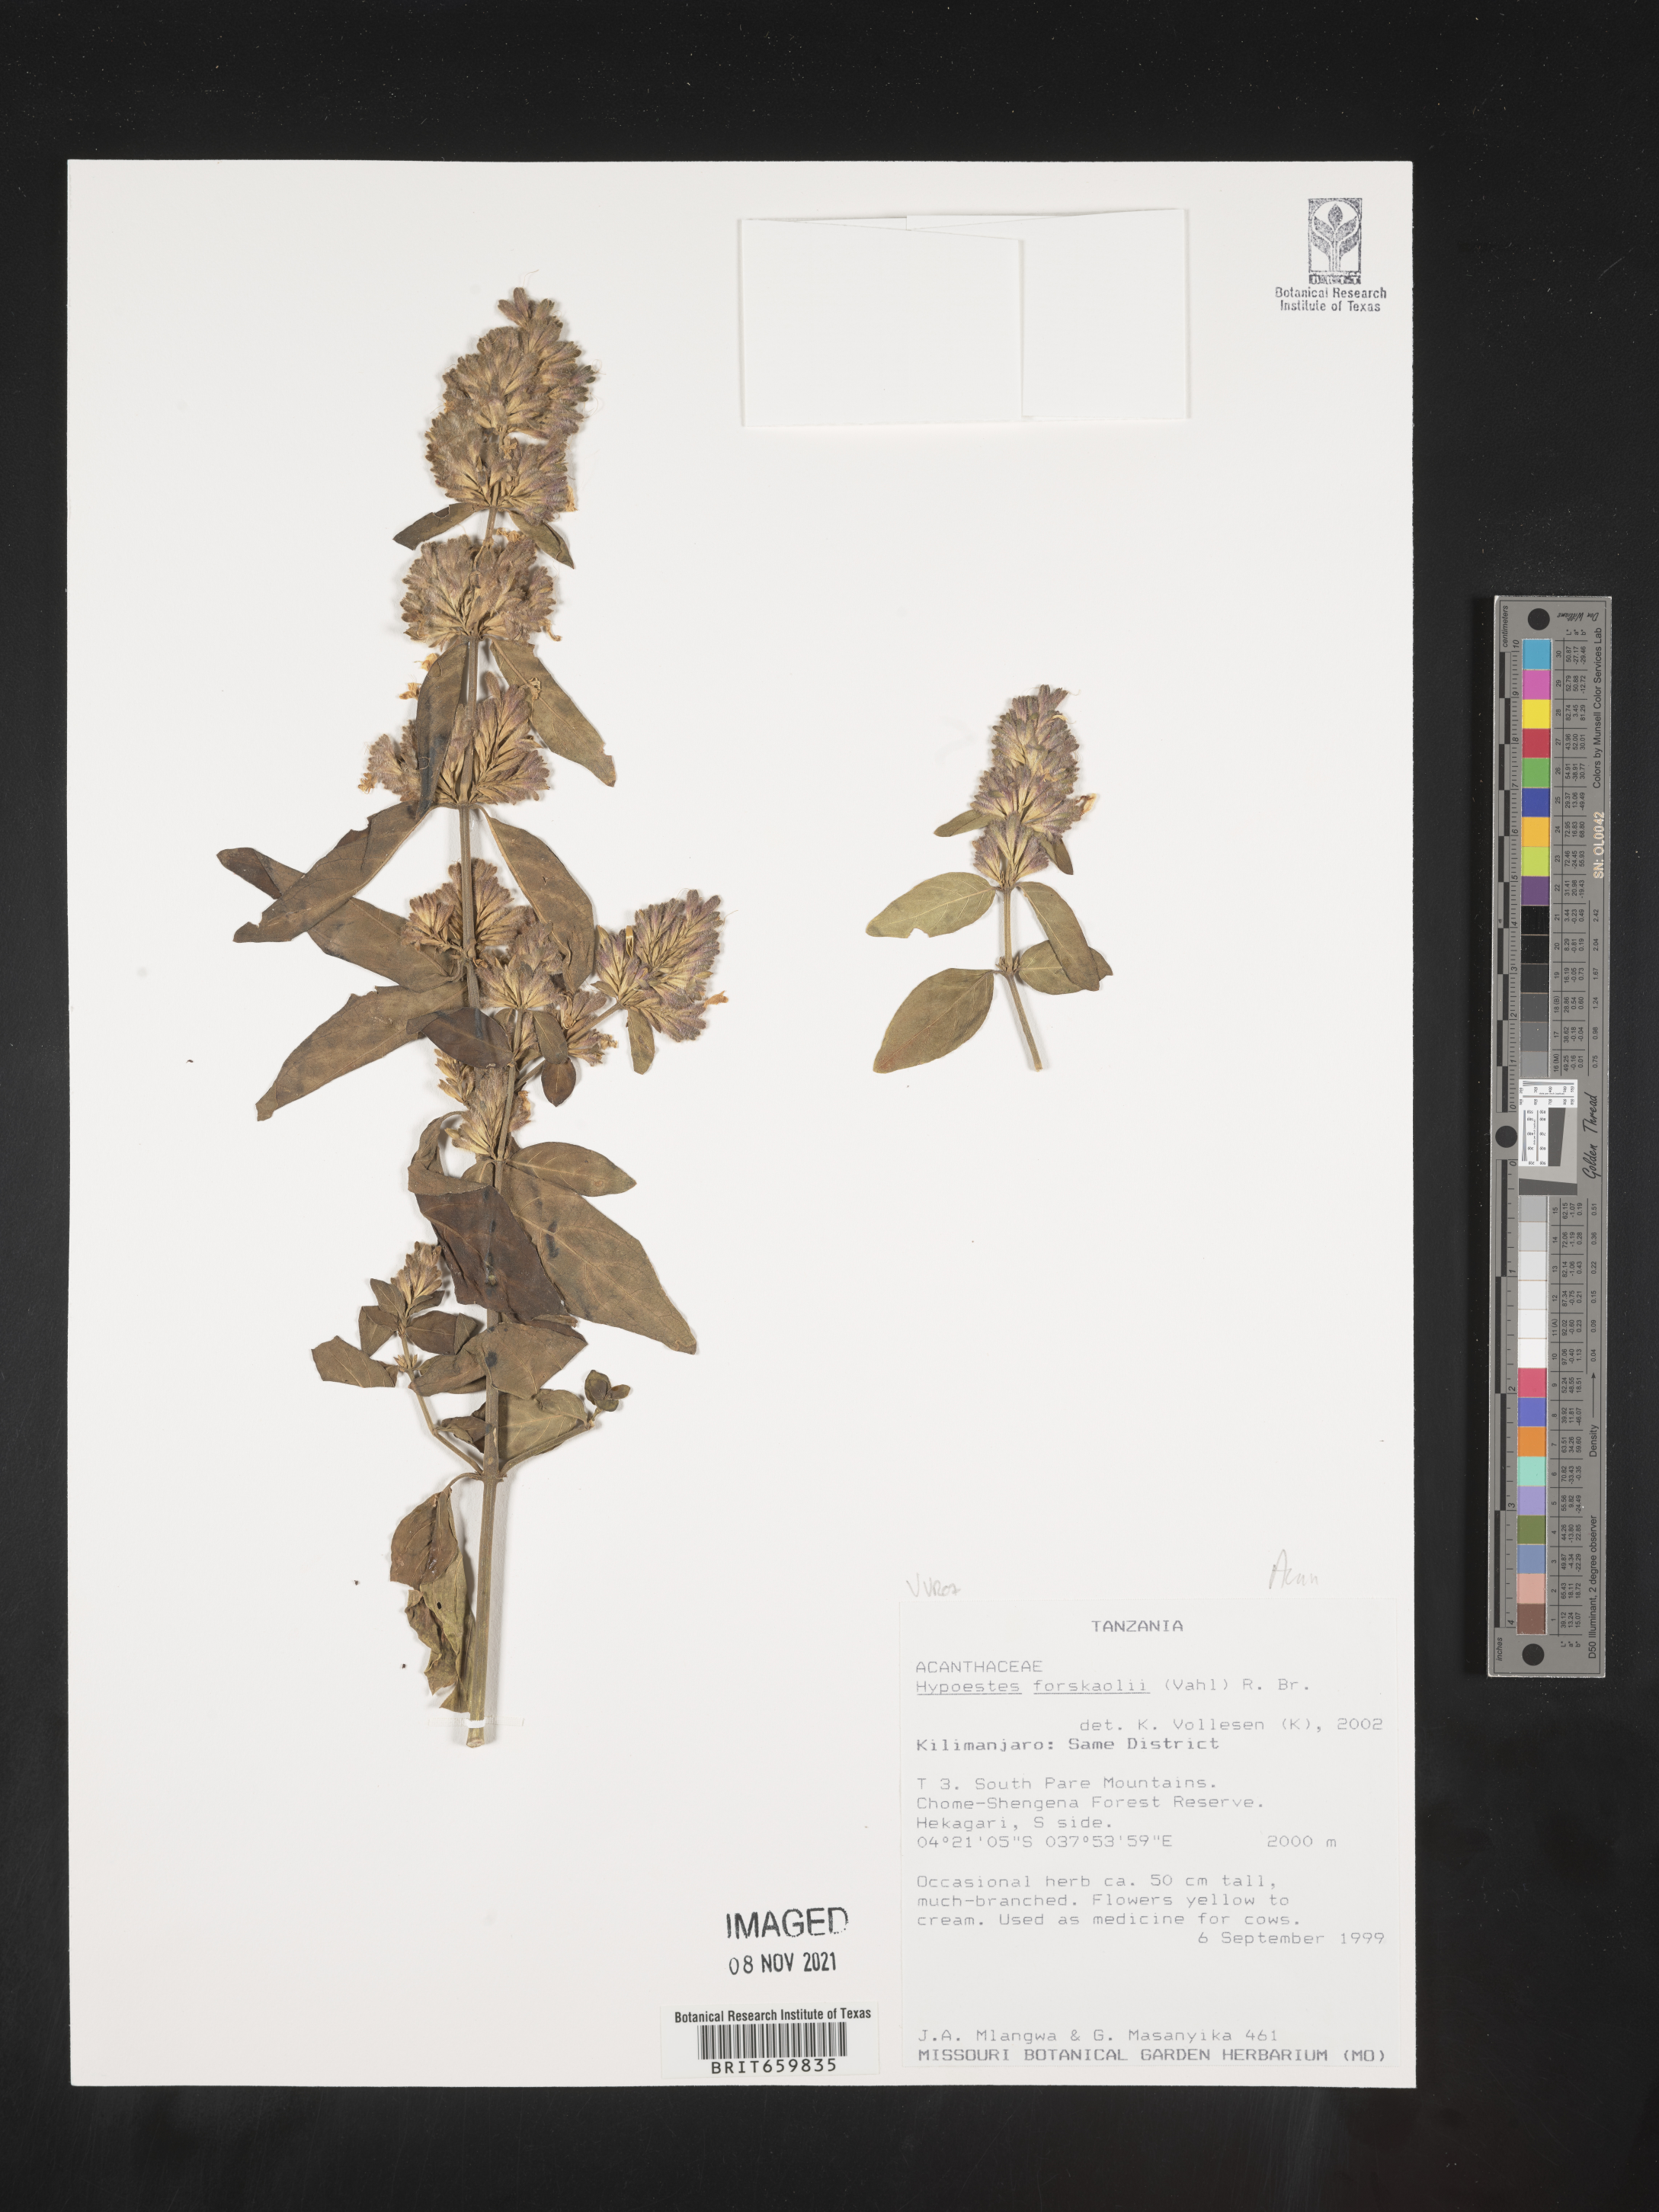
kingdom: Plantae
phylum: Tracheophyta
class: Magnoliopsida
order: Lamiales
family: Acanthaceae
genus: Hypoestes
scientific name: Hypoestes forskaolii
